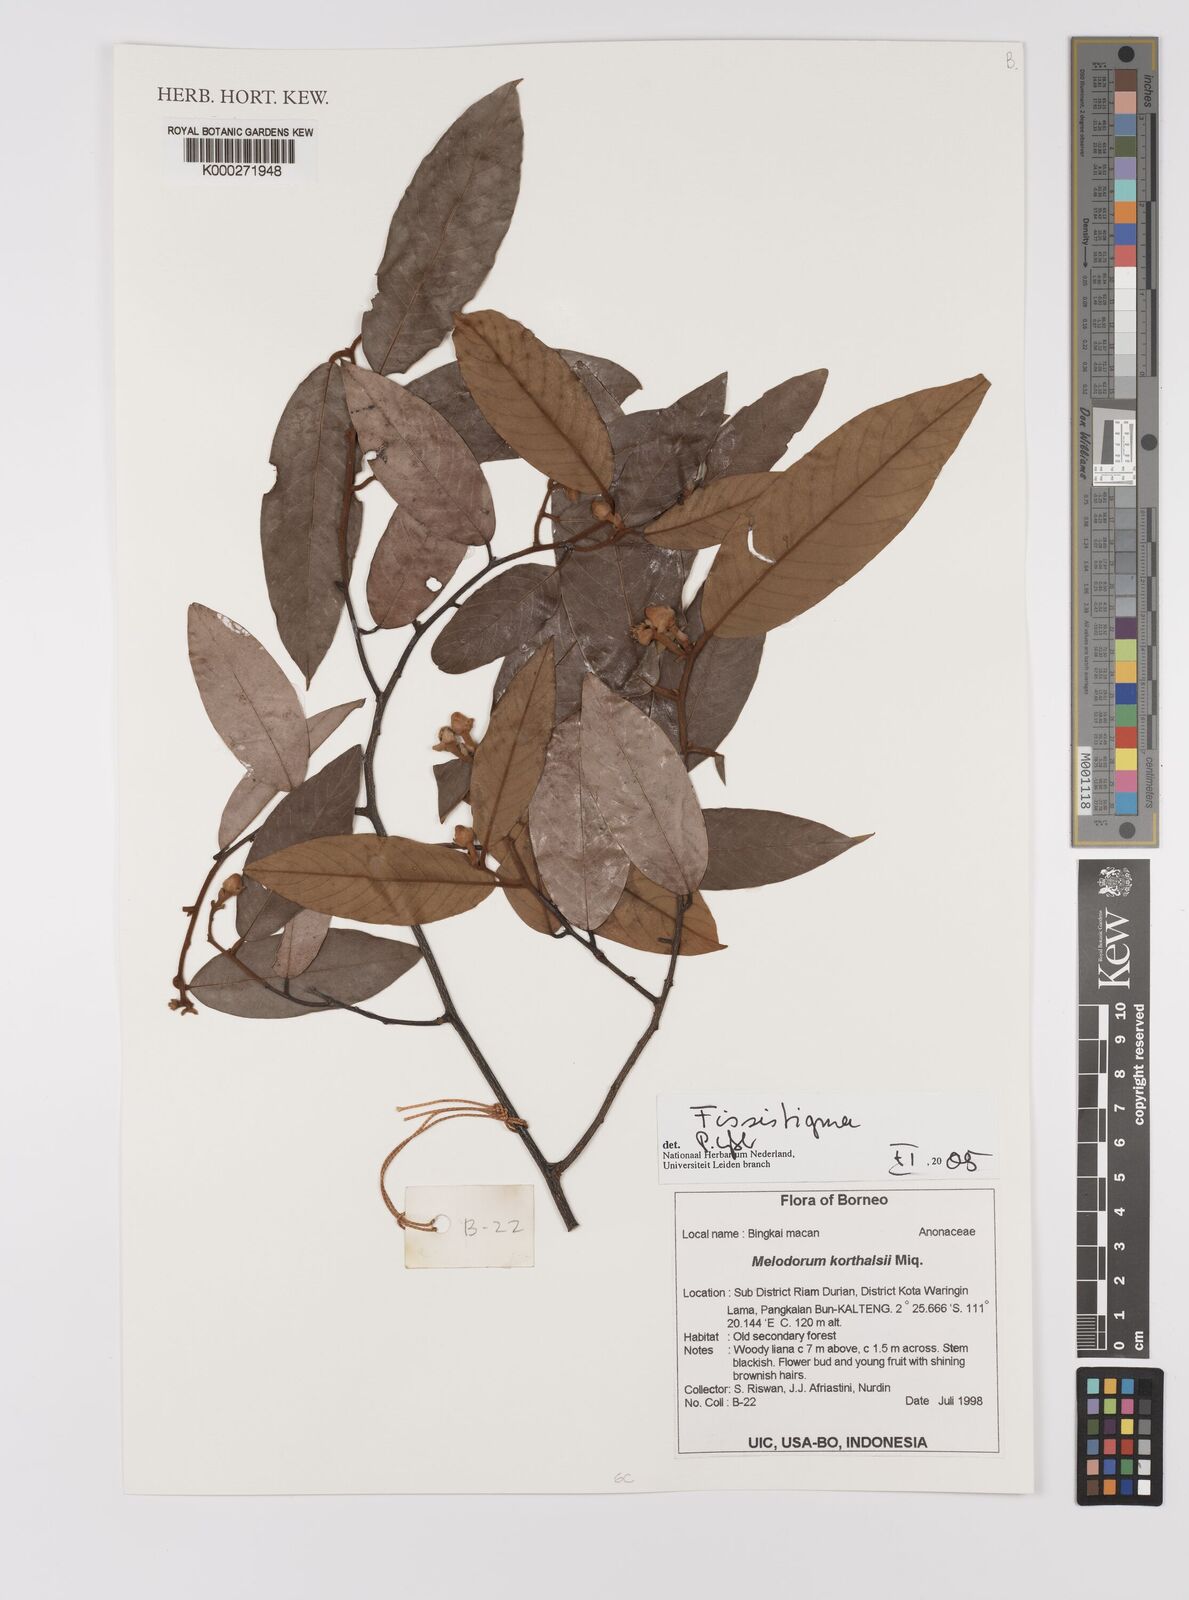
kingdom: Plantae
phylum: Tracheophyta
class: Magnoliopsida
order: Magnoliales
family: Annonaceae
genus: Fissistigma
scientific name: Fissistigma
